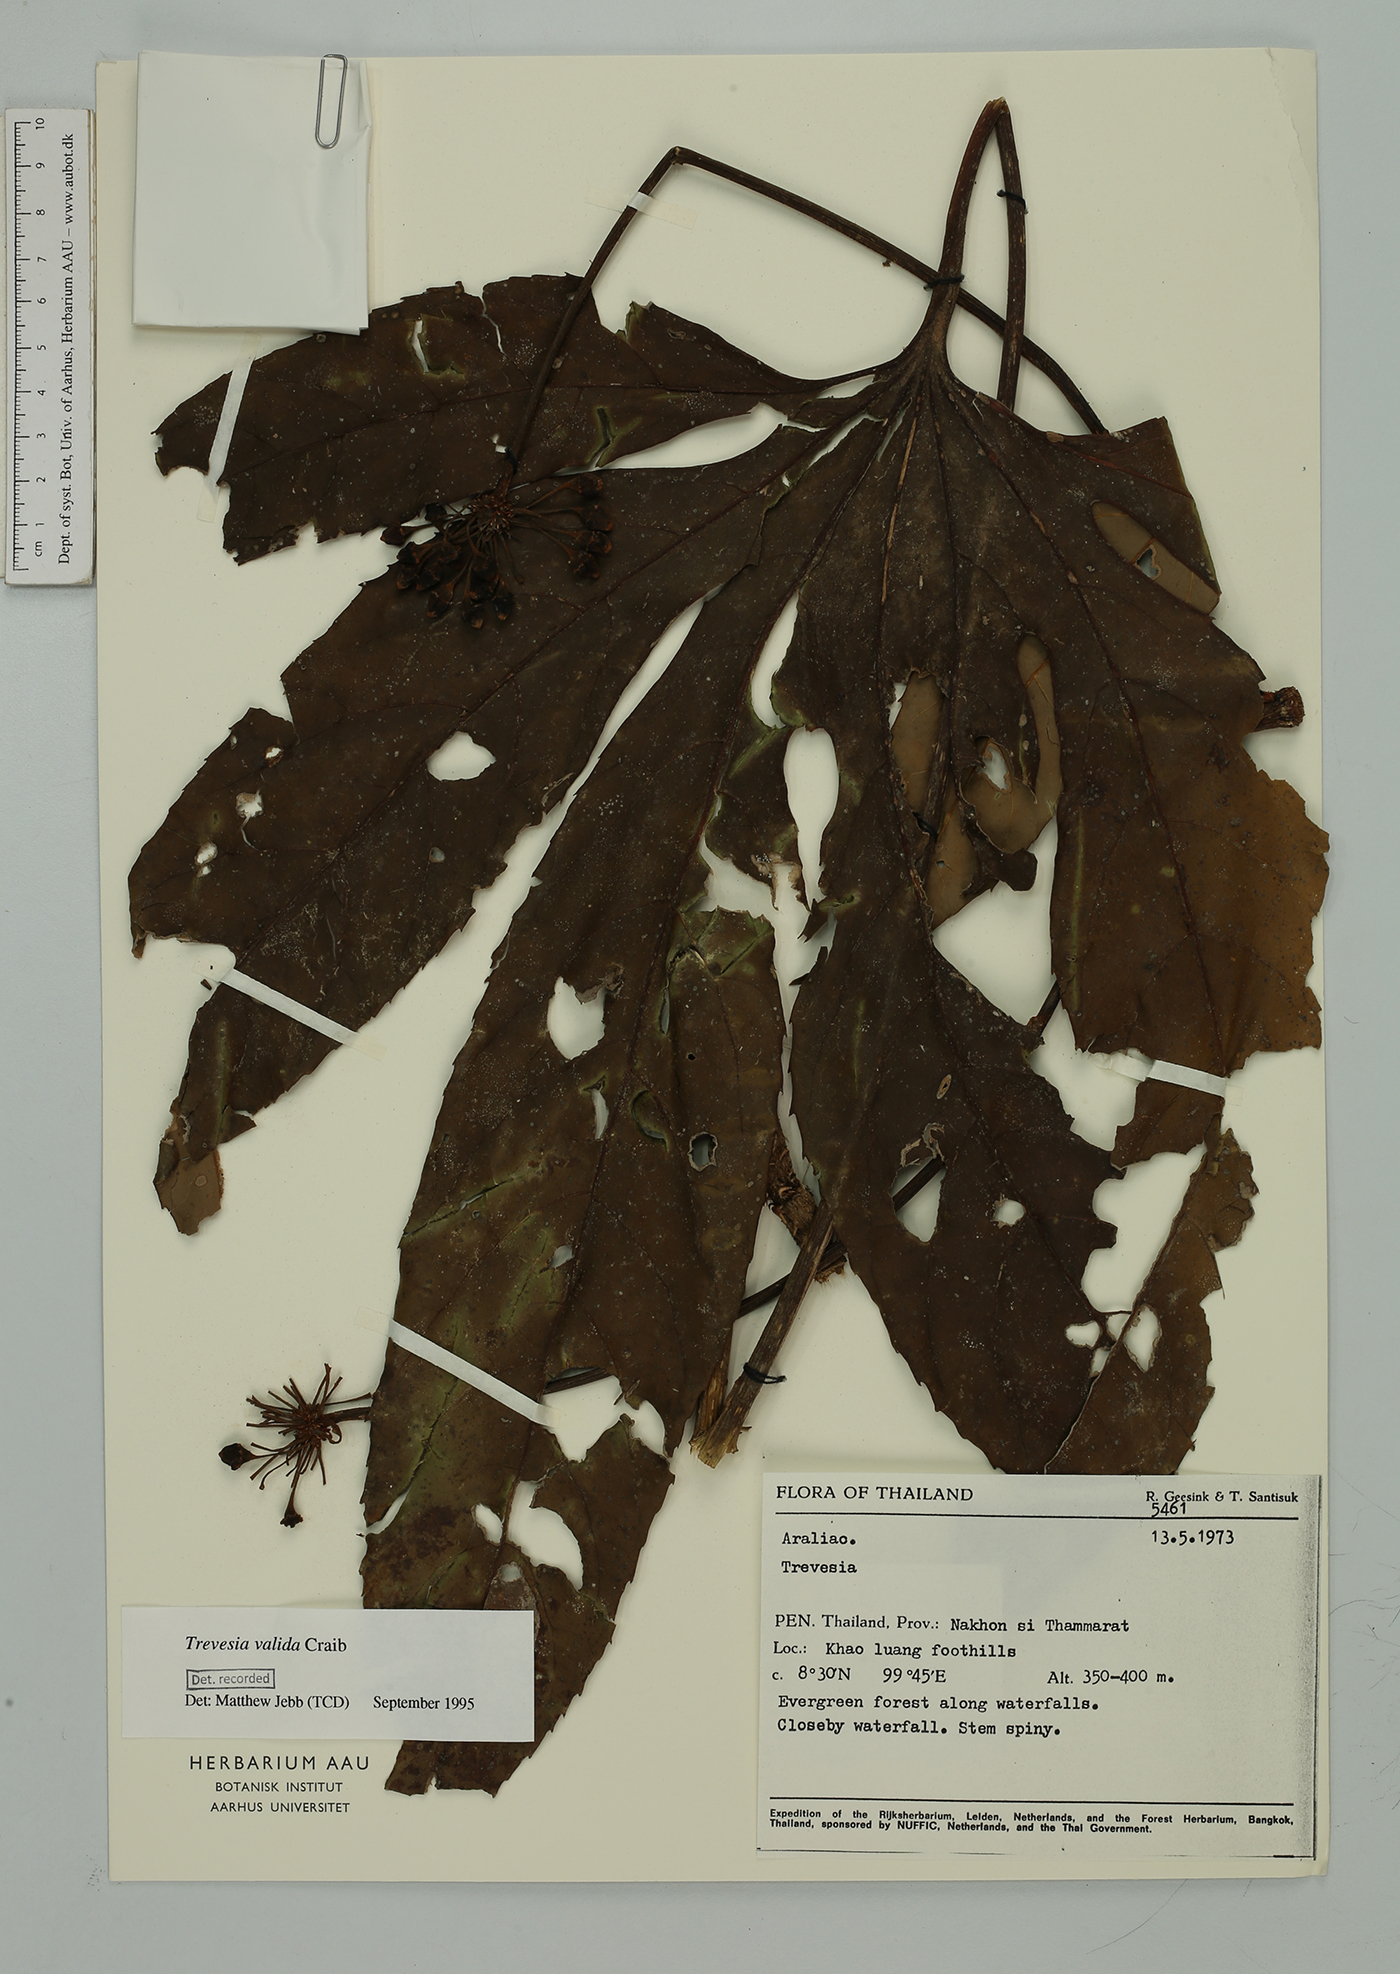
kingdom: Plantae
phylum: Tracheophyta
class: Magnoliopsida
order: Apiales
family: Araliaceae
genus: Trevesia
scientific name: Trevesia valida
